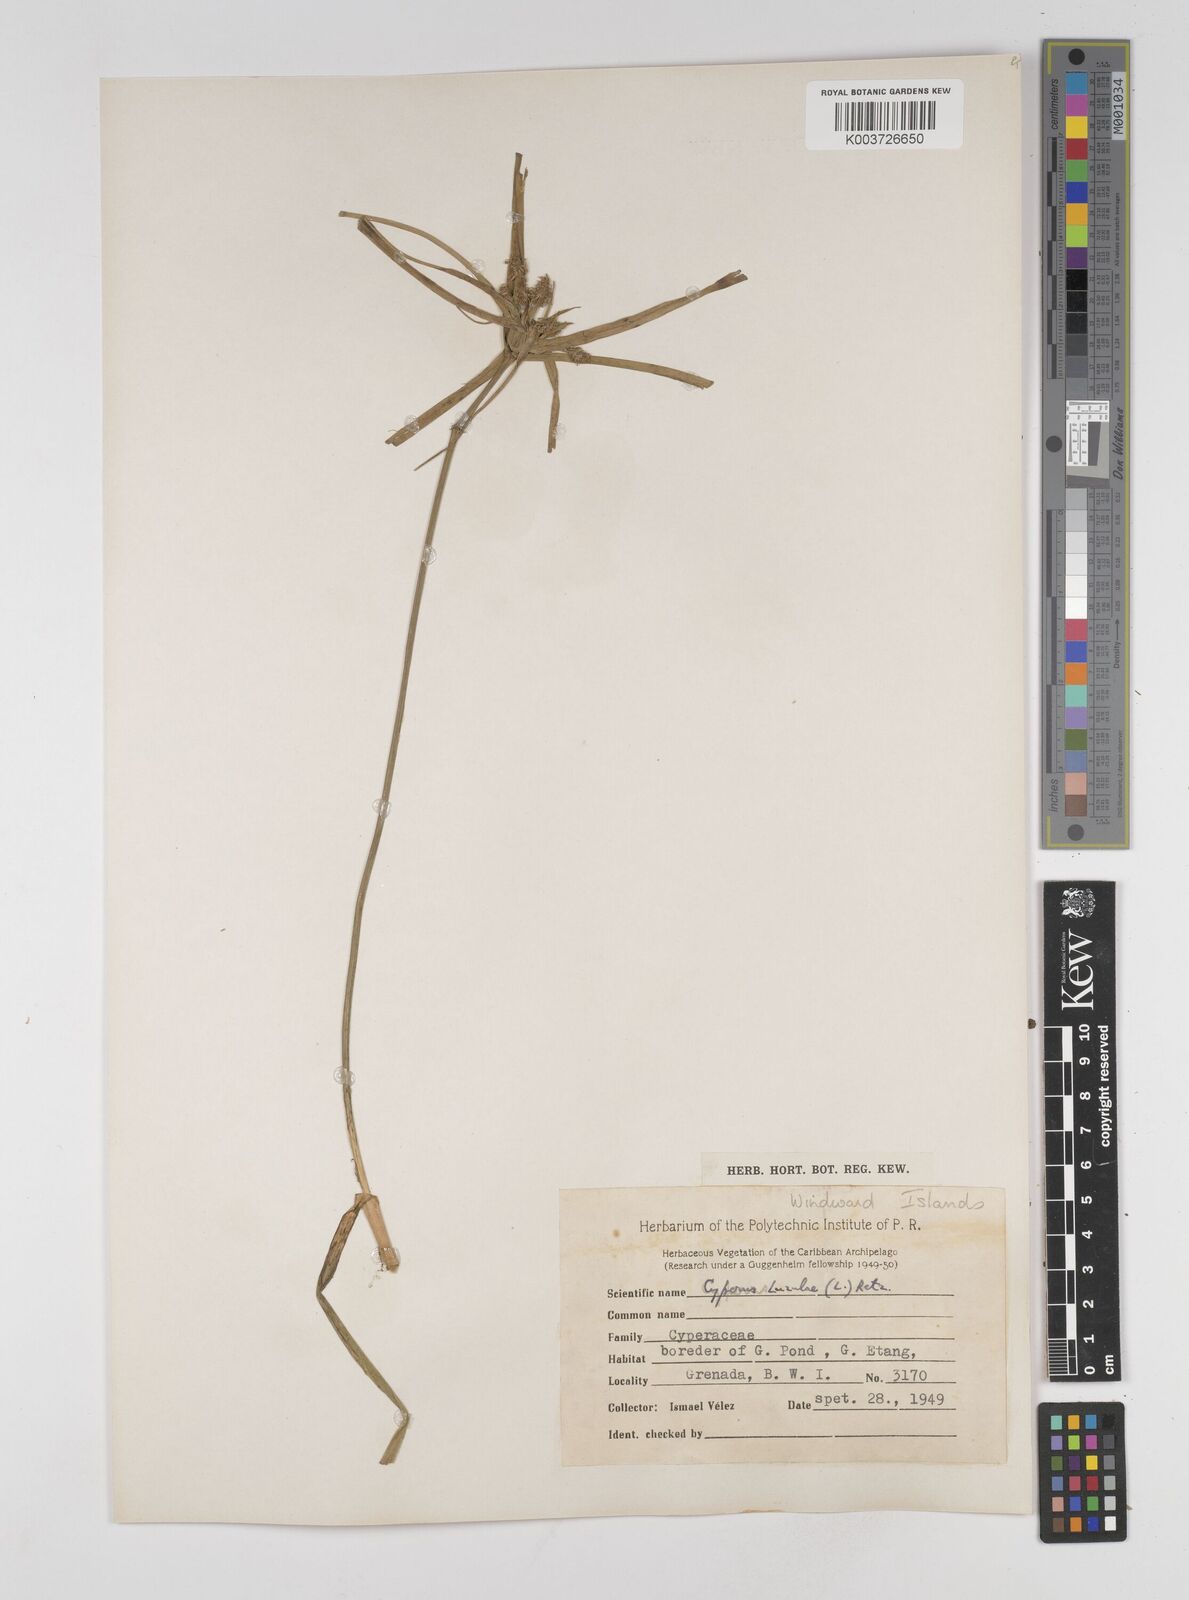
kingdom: Plantae
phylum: Tracheophyta
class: Liliopsida
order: Poales
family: Cyperaceae
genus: Cyperus
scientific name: Cyperus luzulae
